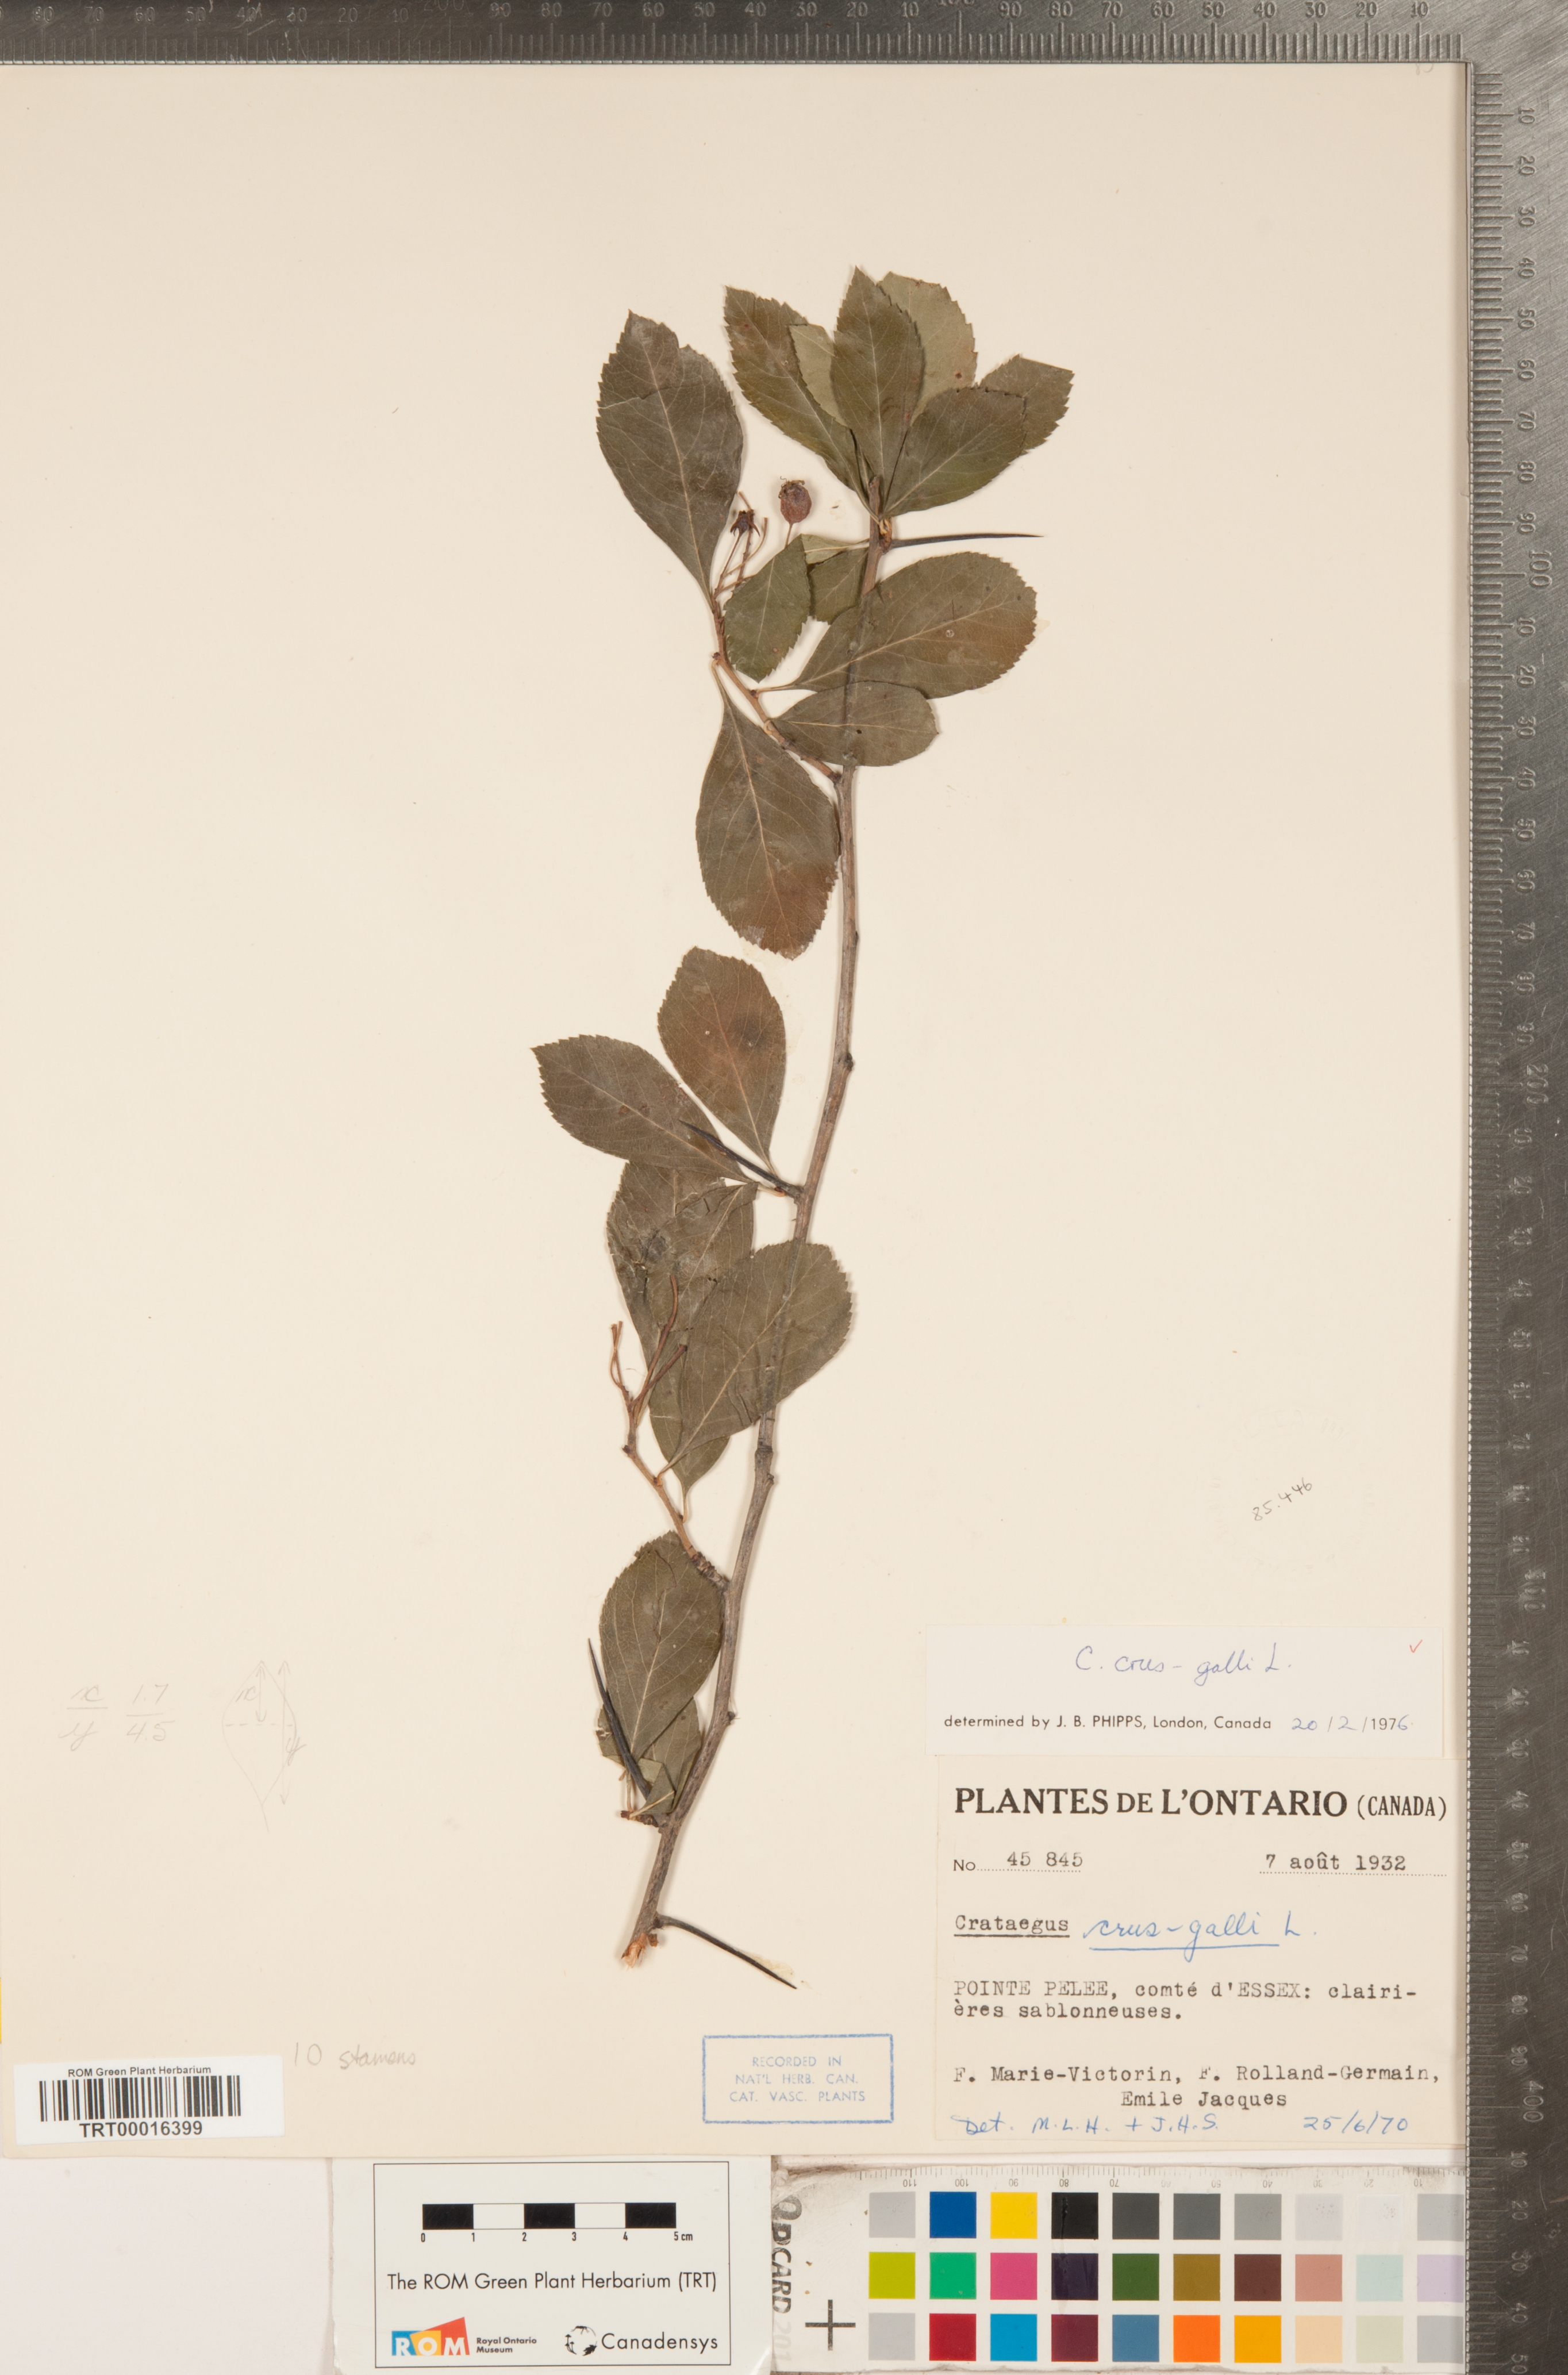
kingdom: Plantae
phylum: Tracheophyta
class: Magnoliopsida
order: Rosales
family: Rosaceae
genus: Crataegus
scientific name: Crataegus crus-galli
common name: Cockspurthorn
